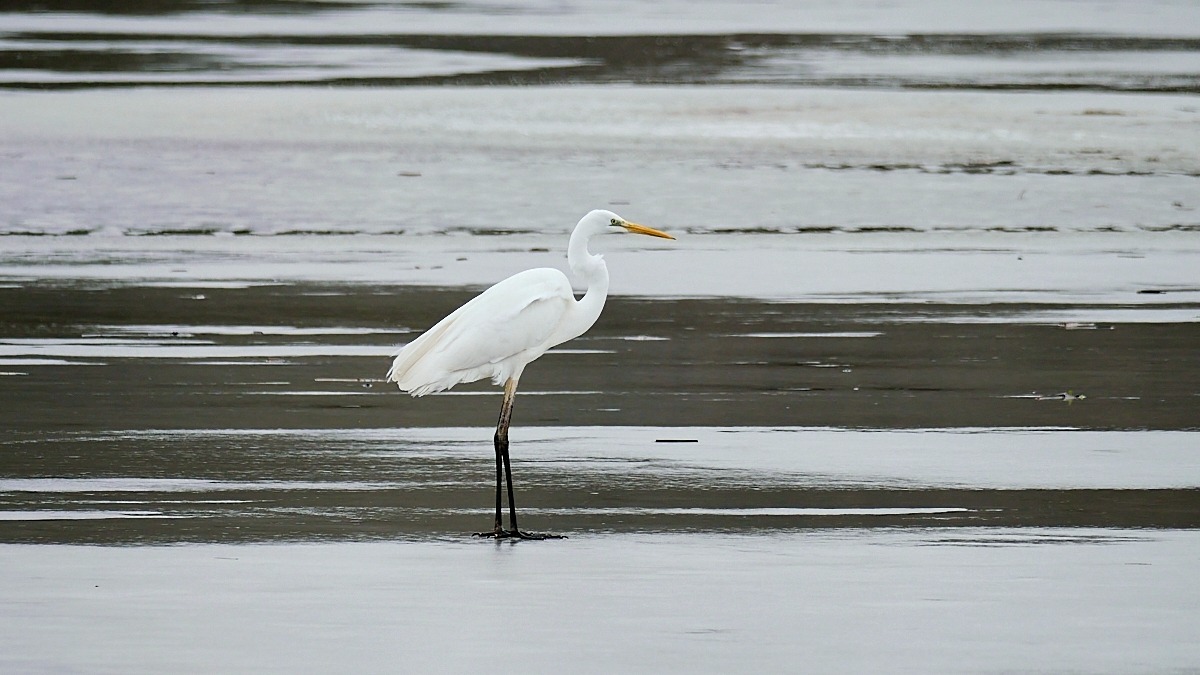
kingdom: Animalia
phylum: Chordata
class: Aves
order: Pelecaniformes
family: Ardeidae
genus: Ardea
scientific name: Ardea alba
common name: Sølvhejre
